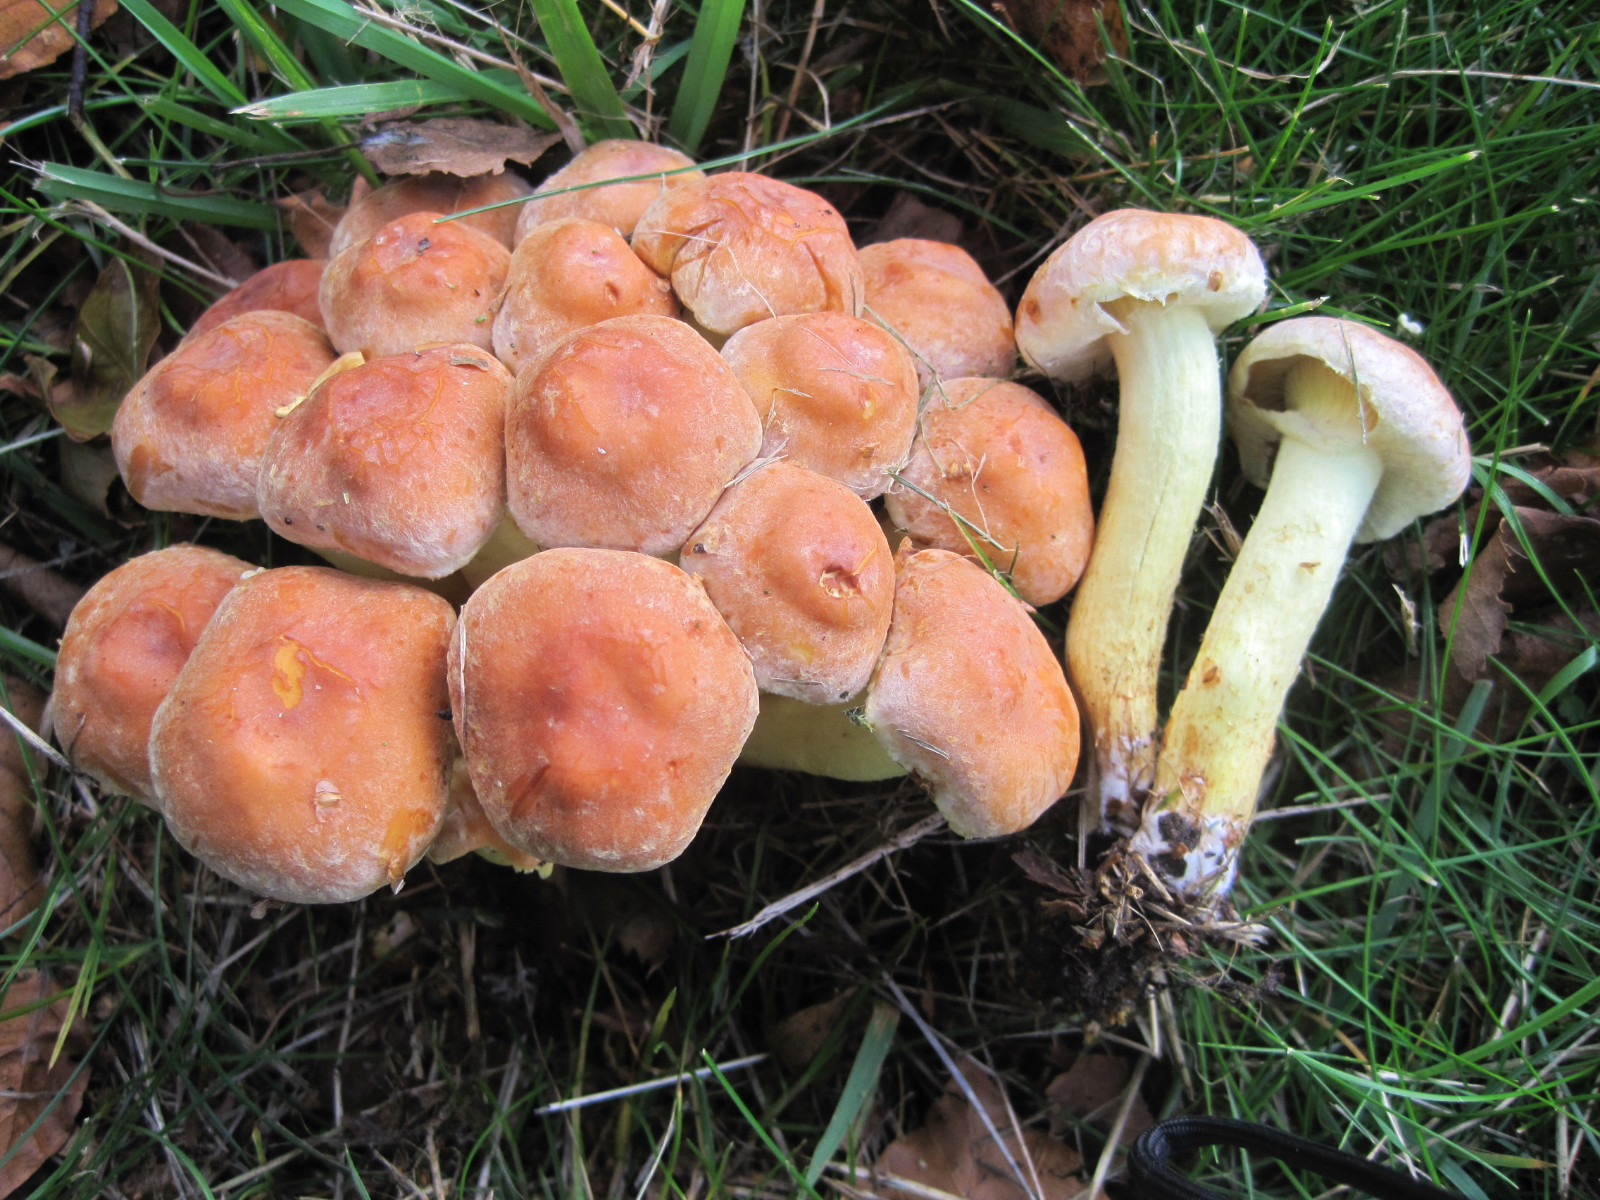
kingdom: Fungi
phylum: Basidiomycota
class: Agaricomycetes
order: Agaricales
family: Strophariaceae
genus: Hypholoma
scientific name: Hypholoma lateritium
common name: teglrød svovlhat
